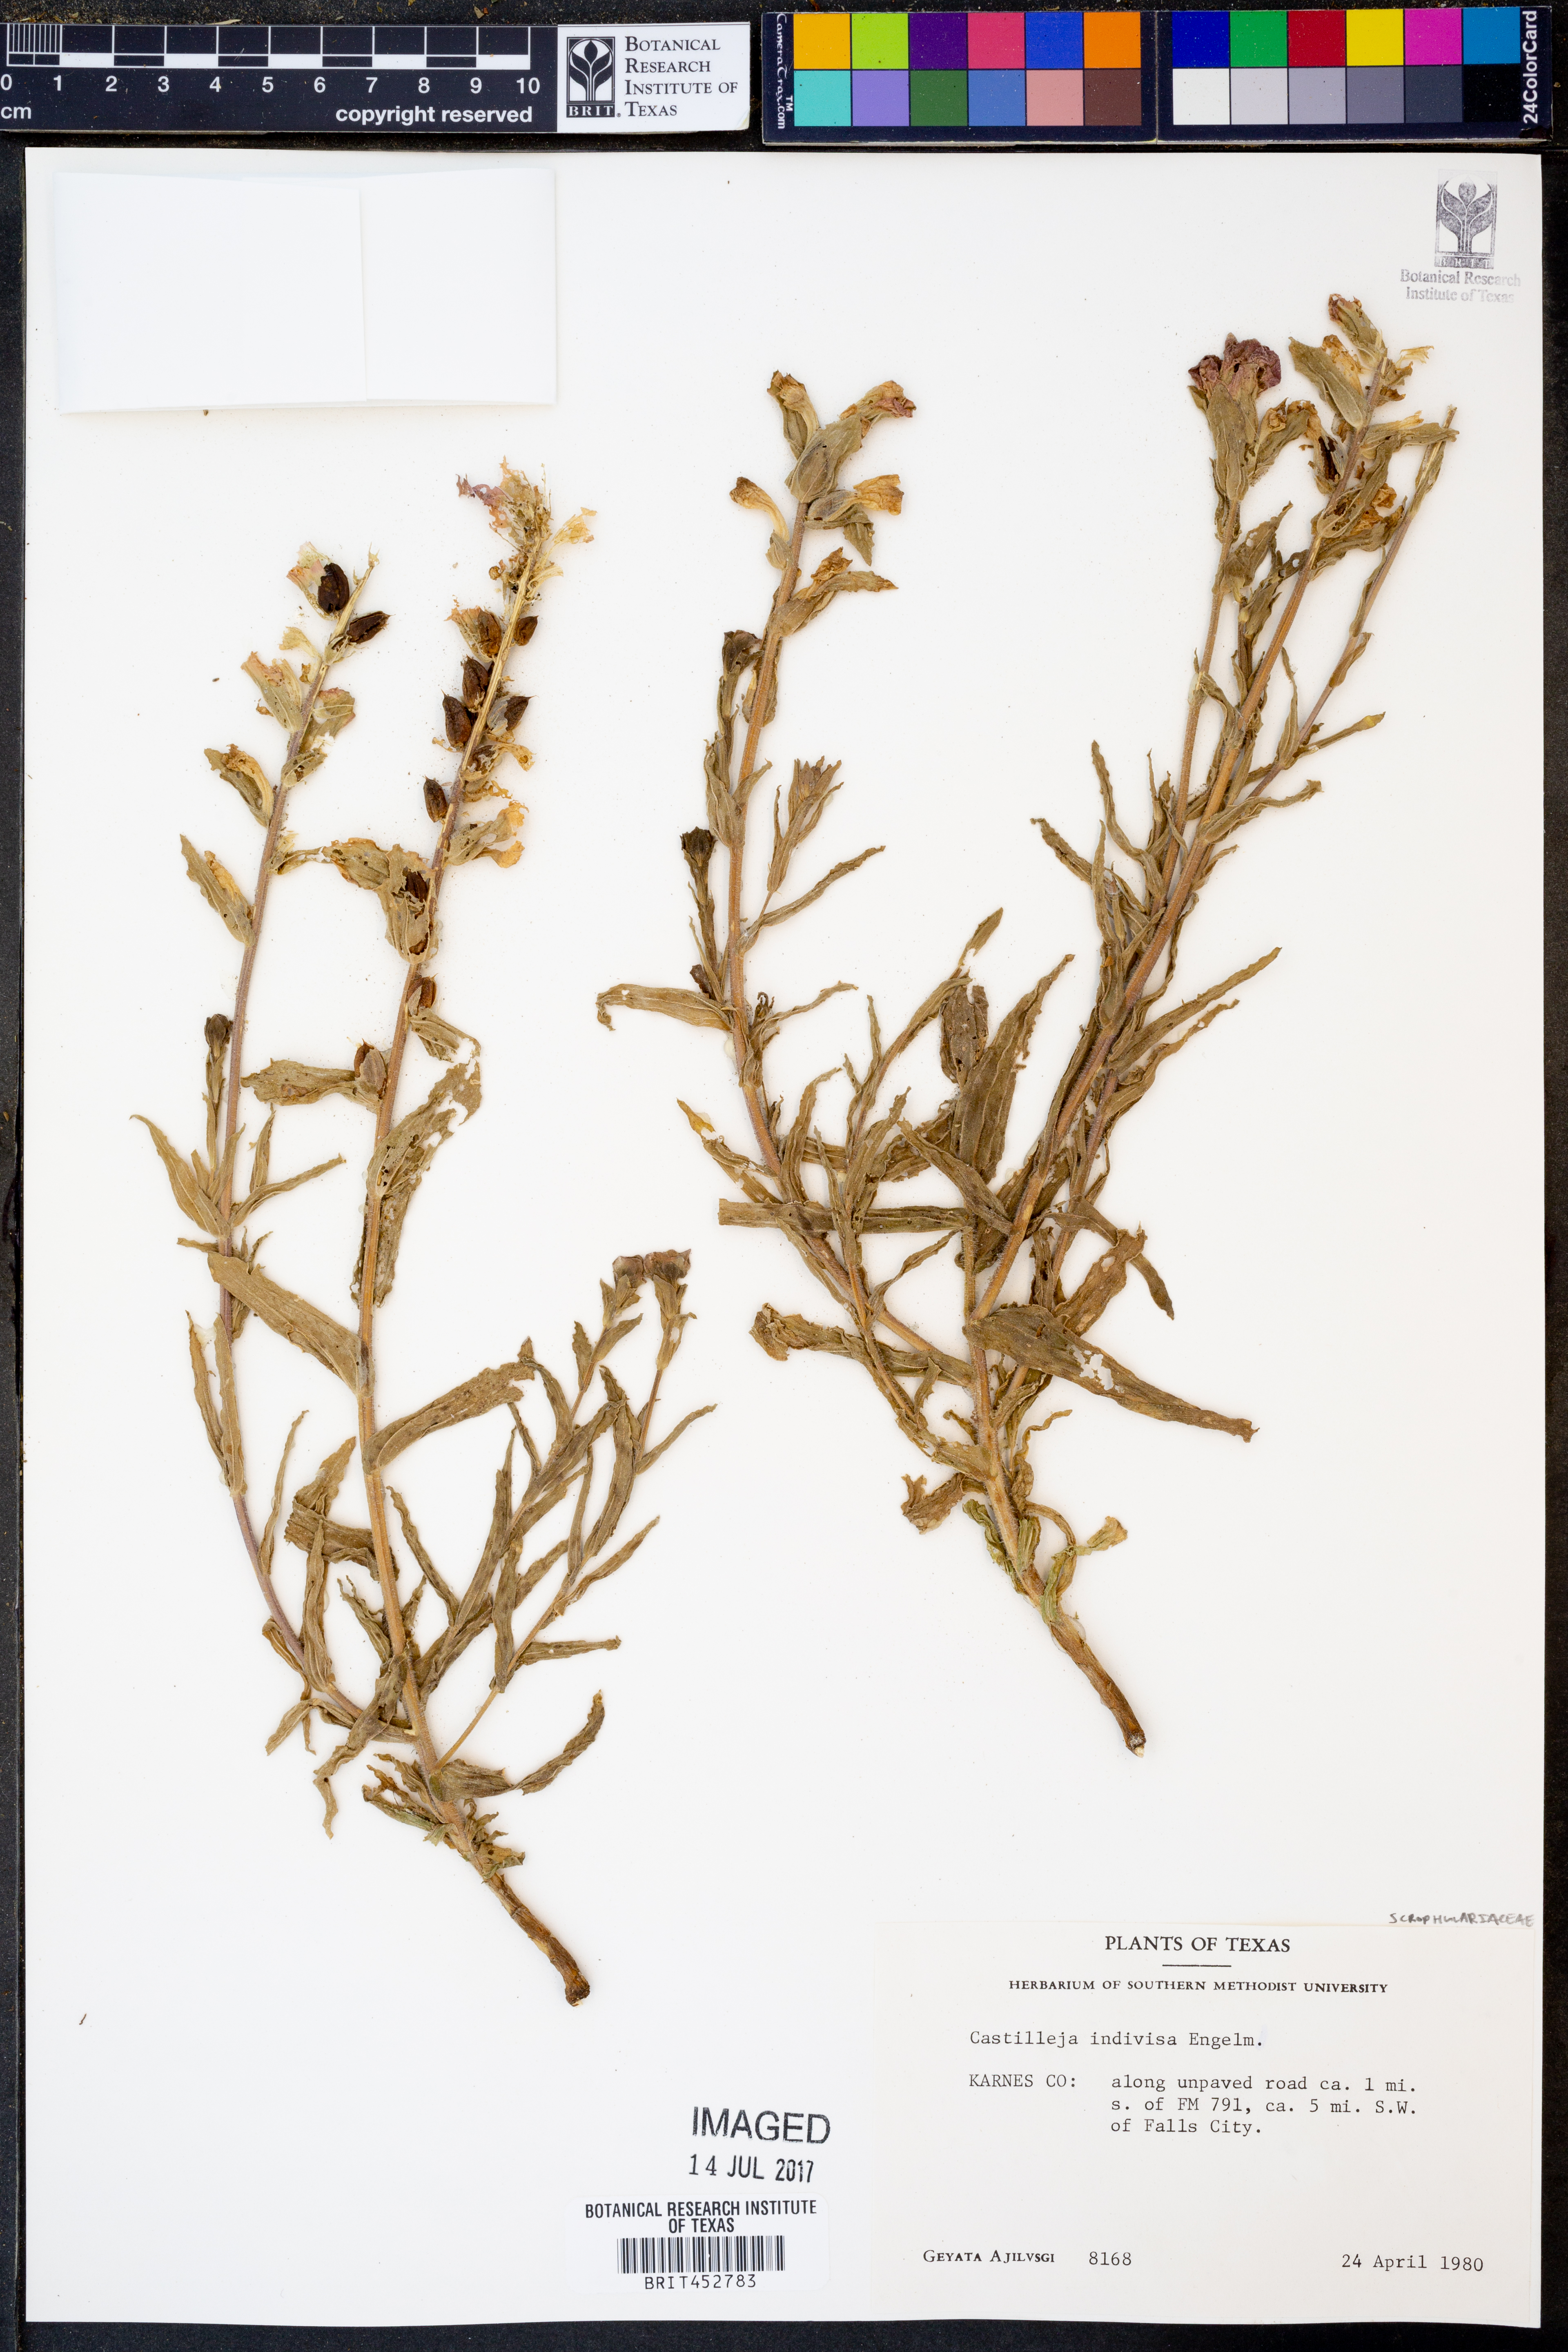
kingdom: Plantae
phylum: Tracheophyta
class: Magnoliopsida
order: Lamiales
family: Orobanchaceae
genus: Castilleja
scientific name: Castilleja indivisa
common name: Texas paintbrush
